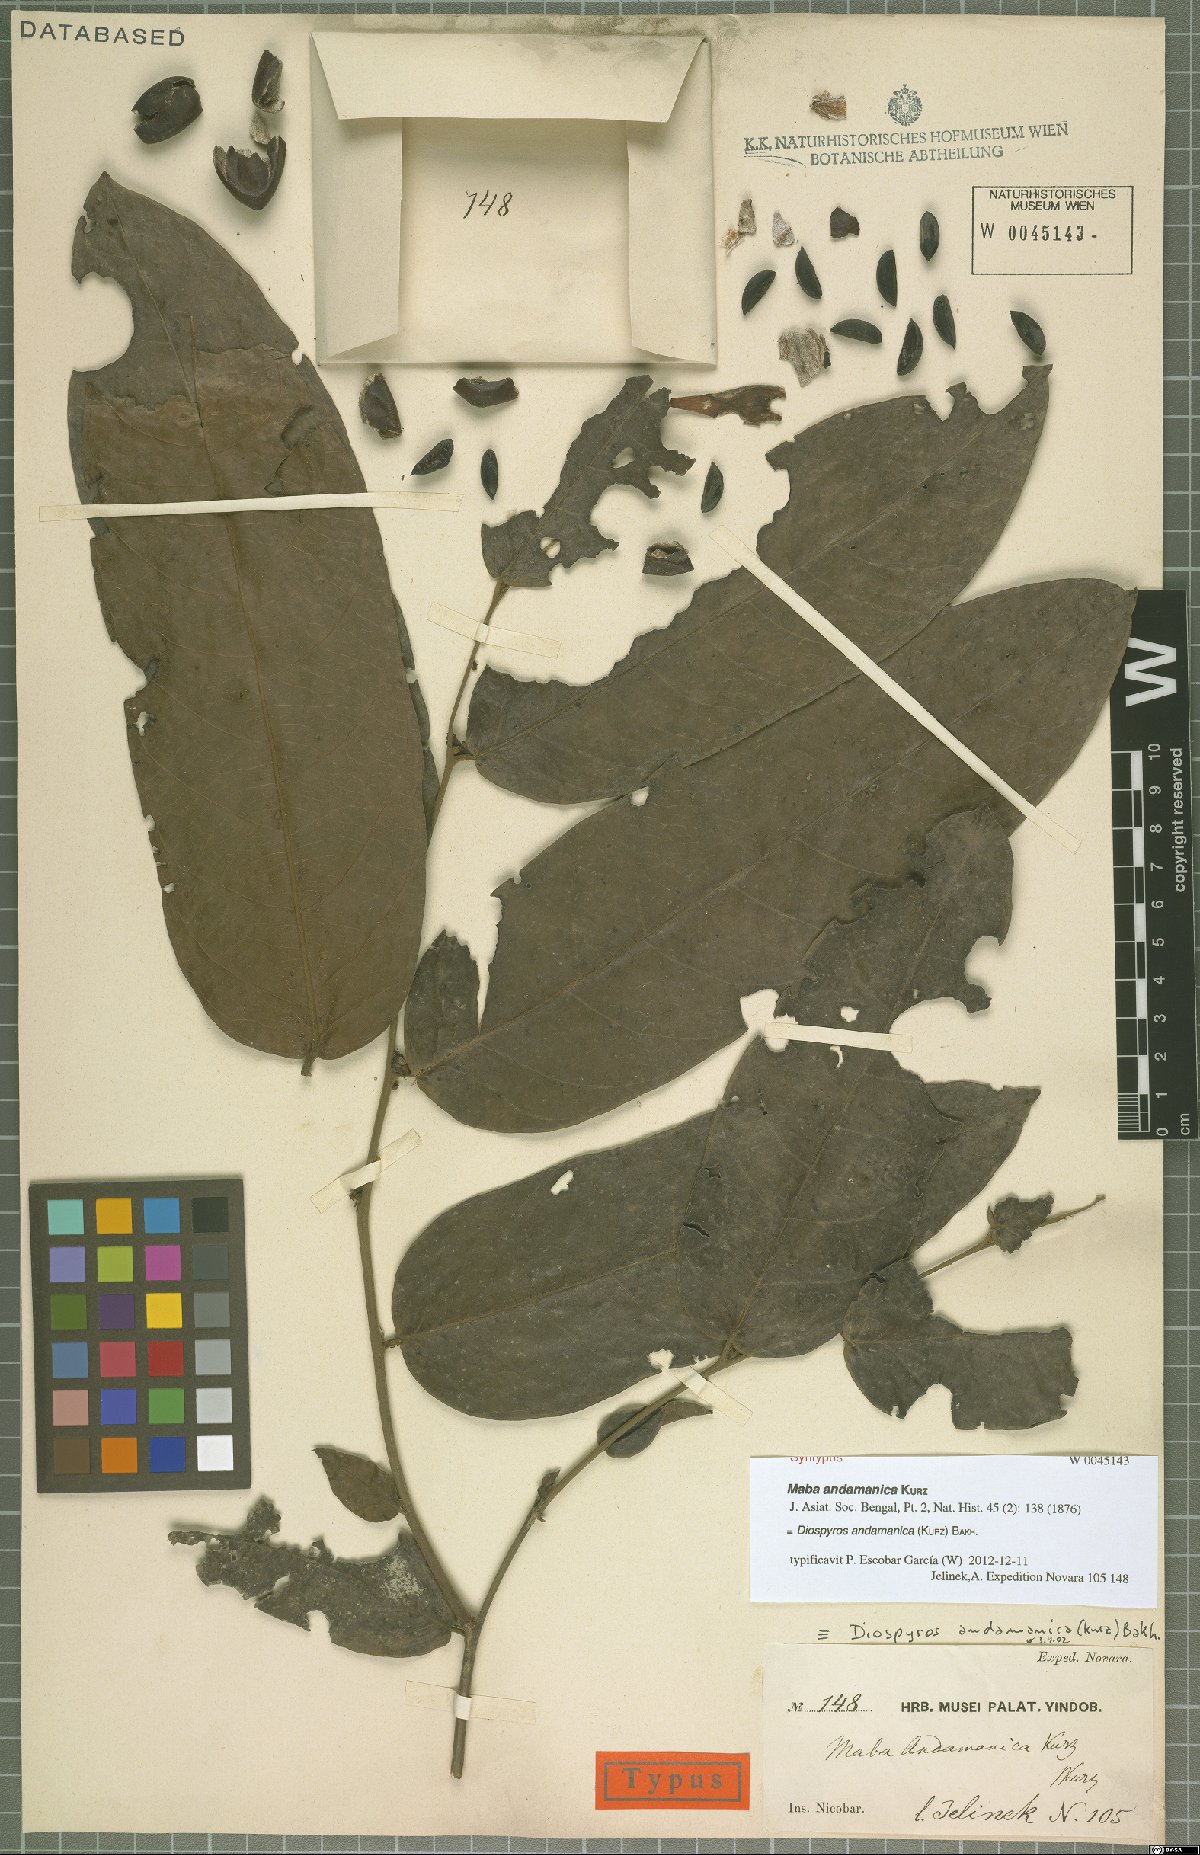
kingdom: Plantae
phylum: Tracheophyta
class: Magnoliopsida
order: Ericales
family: Ebenaceae
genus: Diospyros
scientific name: Diospyros andamanica
